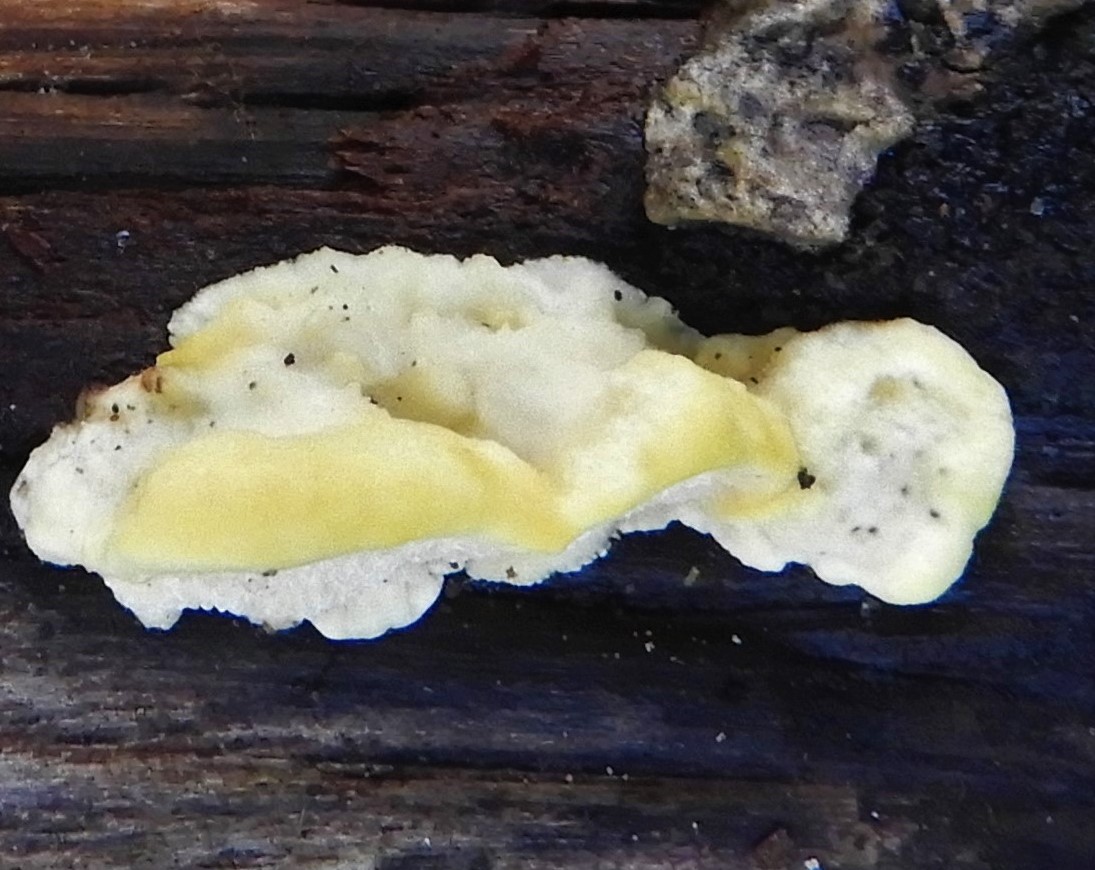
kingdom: Fungi
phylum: Basidiomycota
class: Agaricomycetes
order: Polyporales
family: Steccherinaceae
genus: Antrodiella
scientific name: Antrodiella serpula
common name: gulrandet elastikporesvamp
